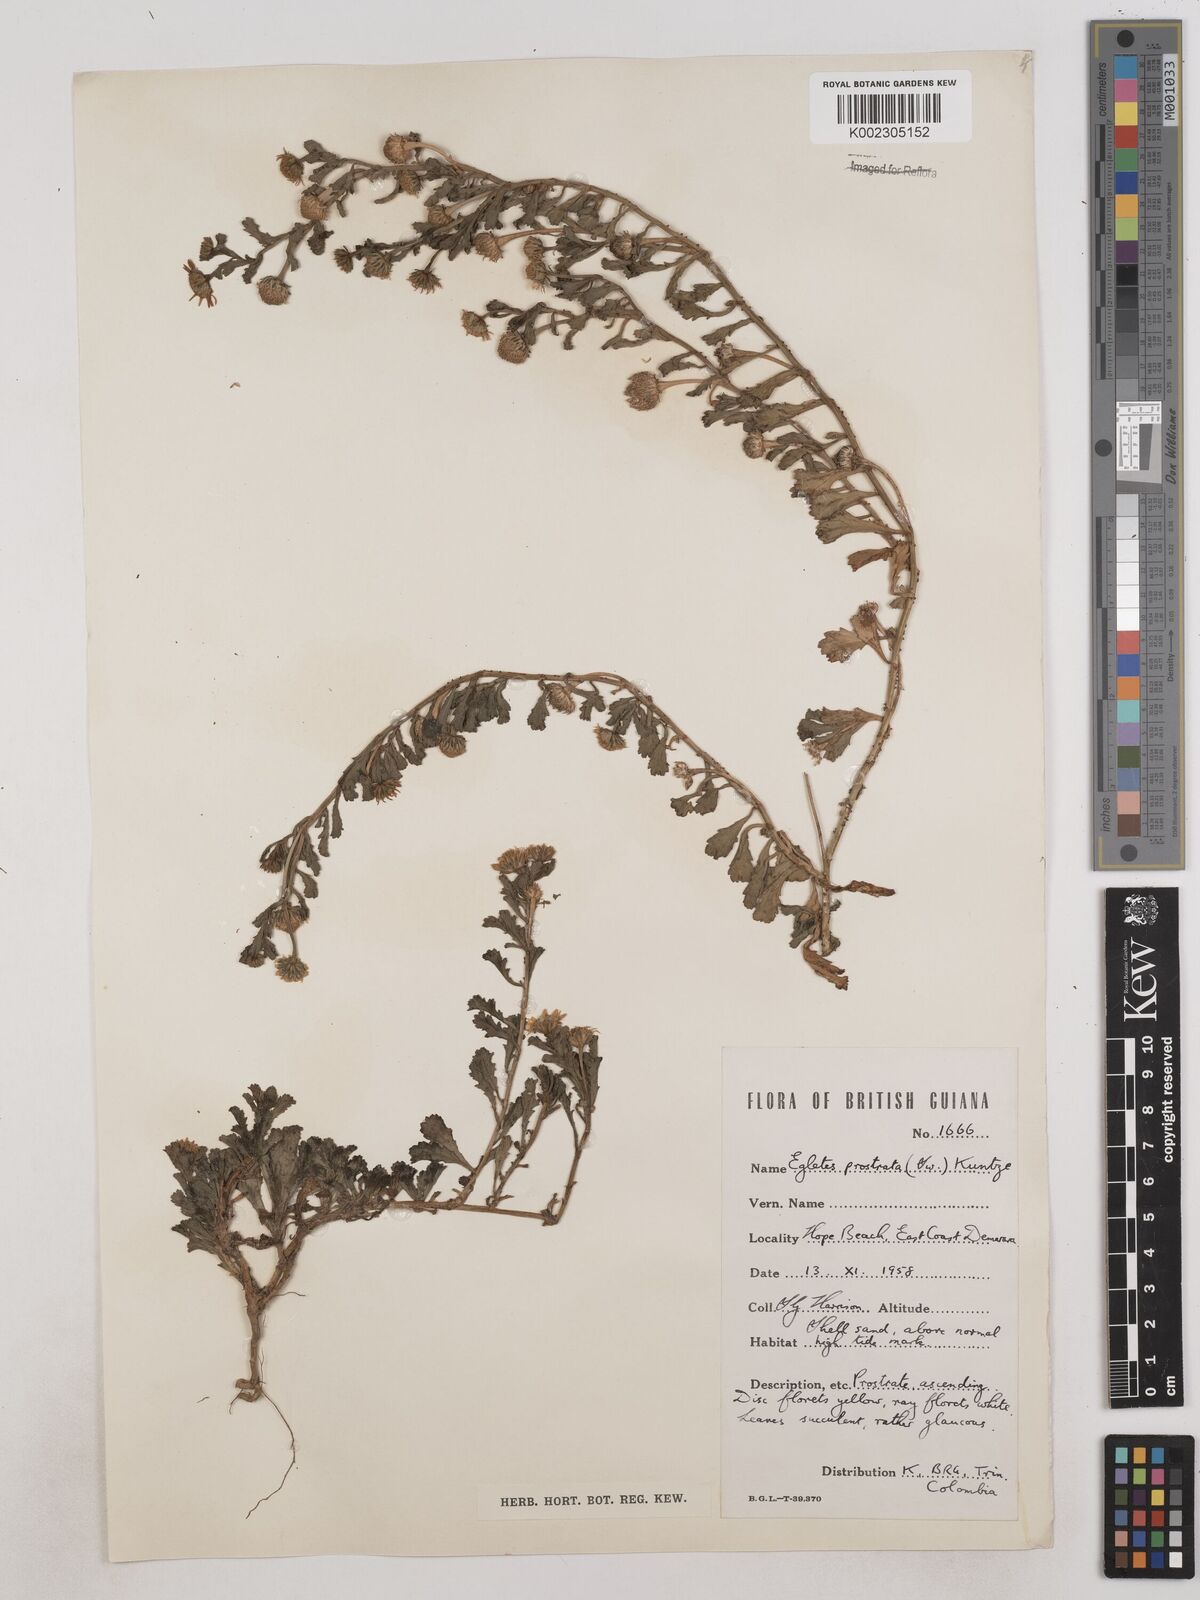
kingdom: Plantae
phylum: Tracheophyta
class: Magnoliopsida
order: Asterales
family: Asteraceae
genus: Egletes
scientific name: Egletes prostrata
